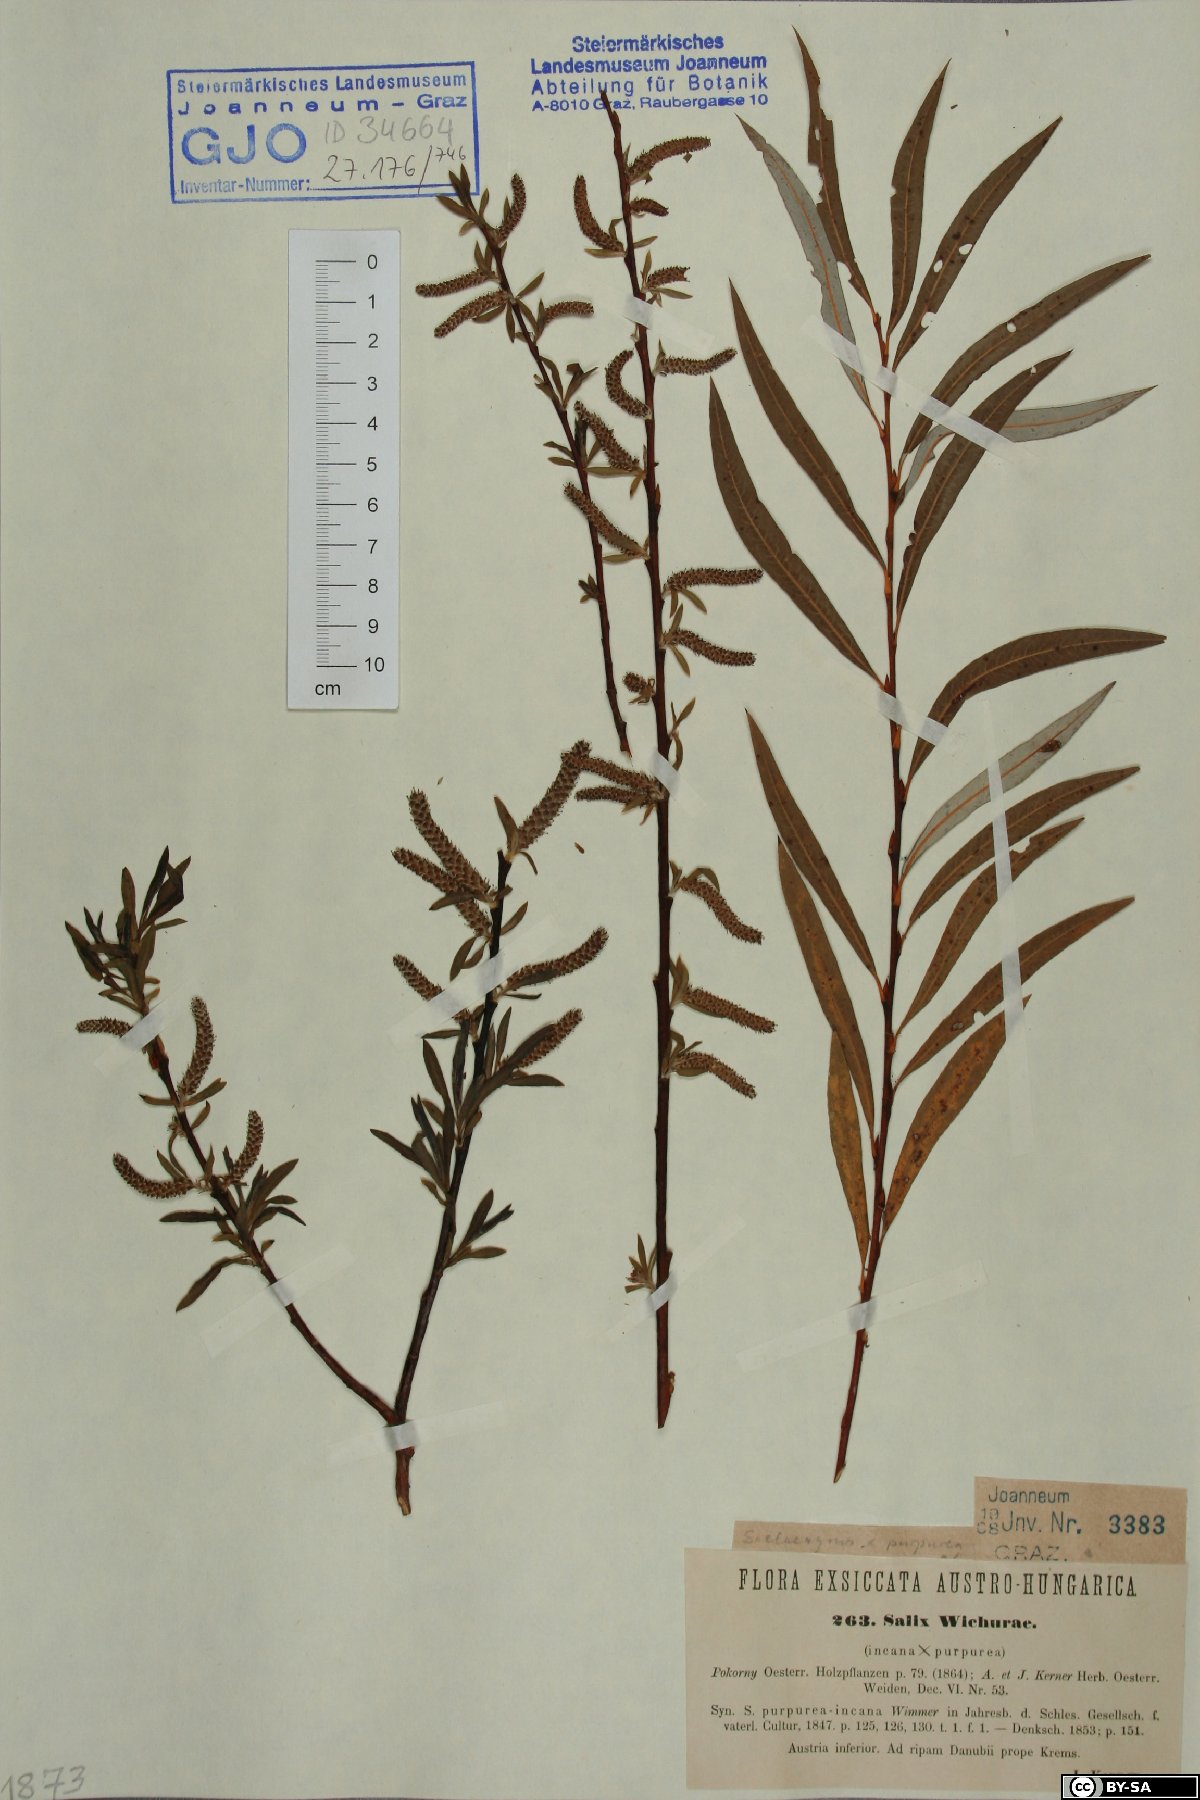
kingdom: Plantae
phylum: Tracheophyta
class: Magnoliopsida
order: Malpighiales
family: Salicaceae
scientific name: Salicaceae
